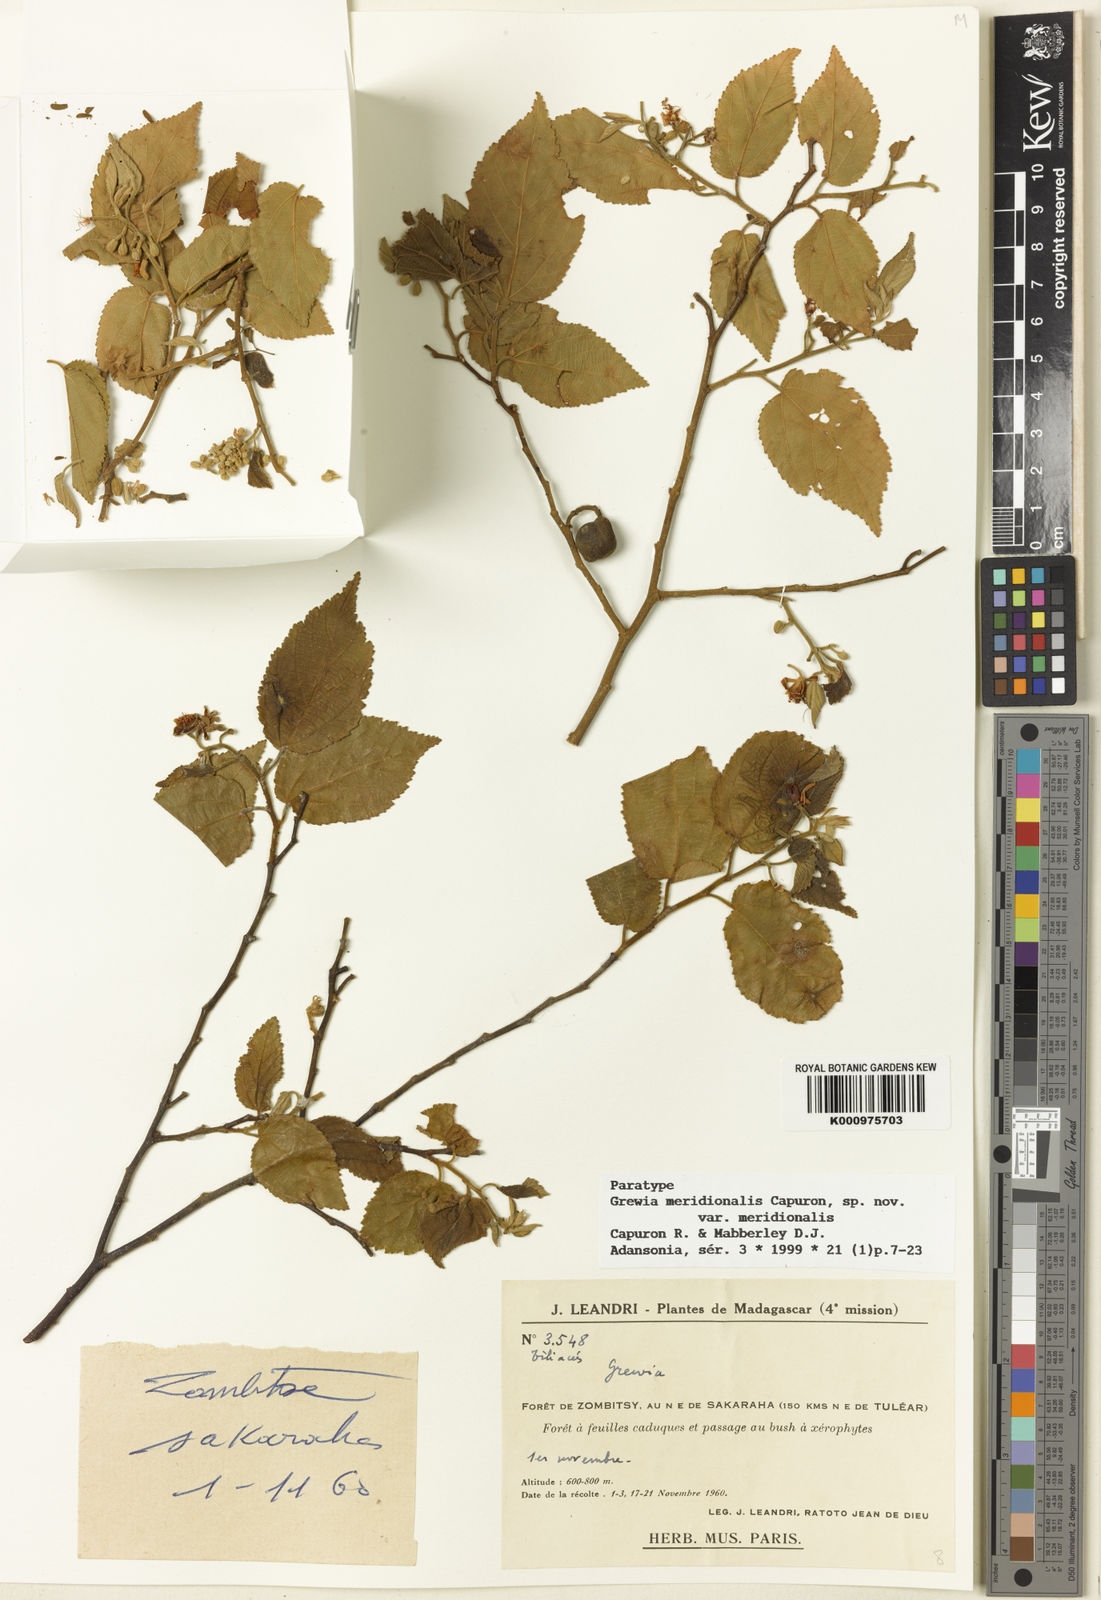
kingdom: Plantae
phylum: Tracheophyta
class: Magnoliopsida
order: Malvales
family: Malvaceae
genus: Grewia
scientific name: Grewia meridionalis
